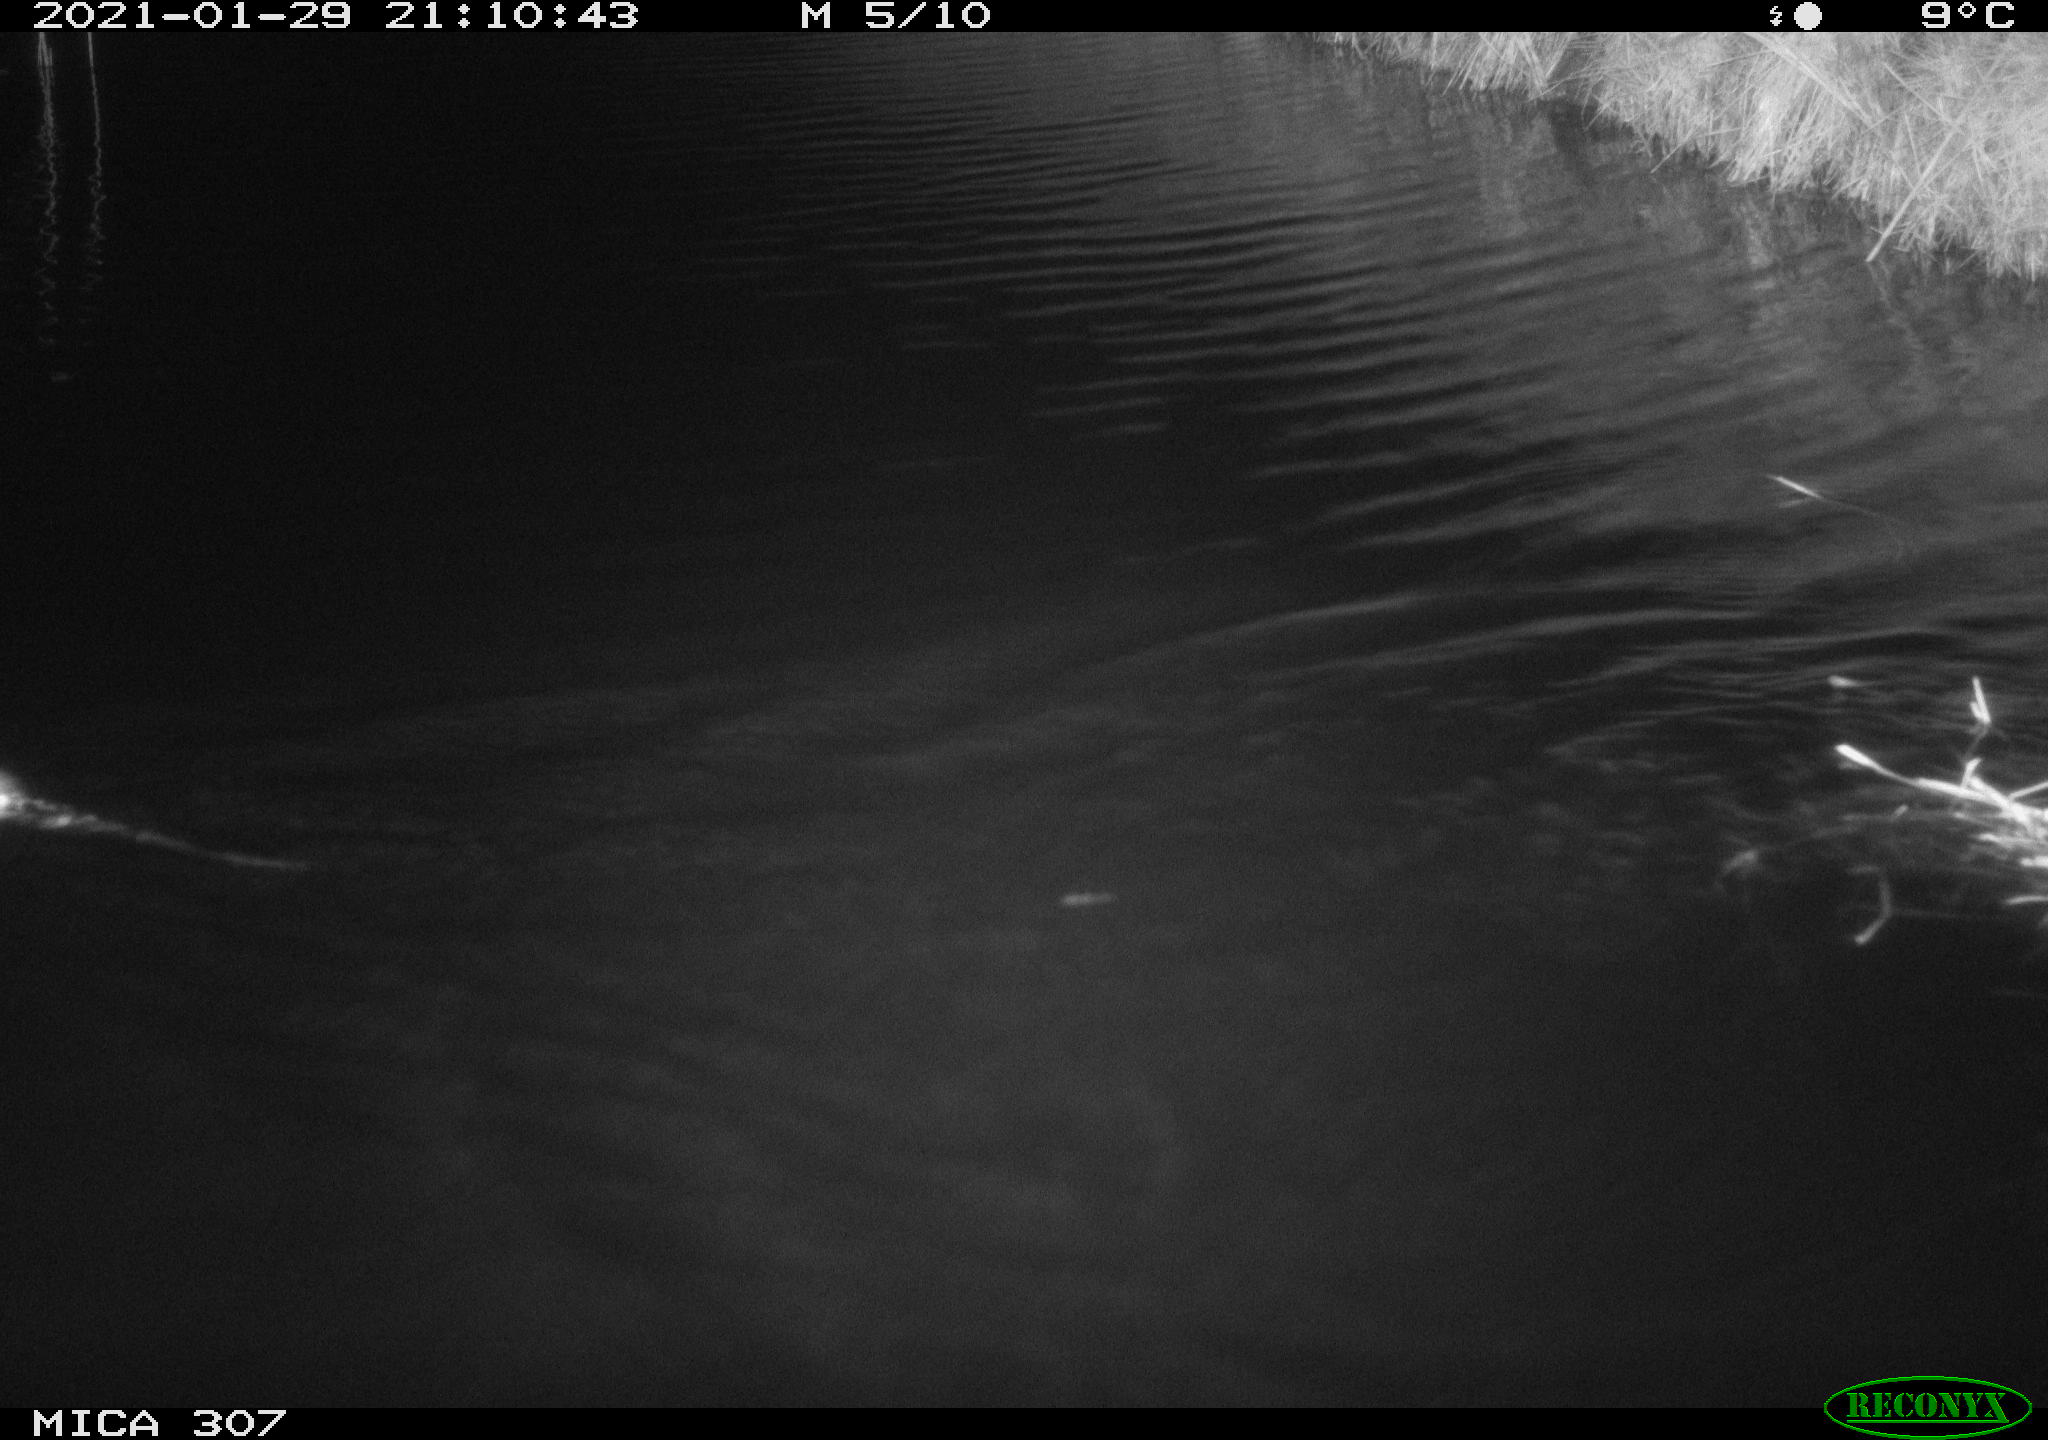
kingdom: Animalia
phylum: Chordata
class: Mammalia
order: Rodentia
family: Cricetidae
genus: Ondatra
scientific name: Ondatra zibethicus
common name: Muskrat
